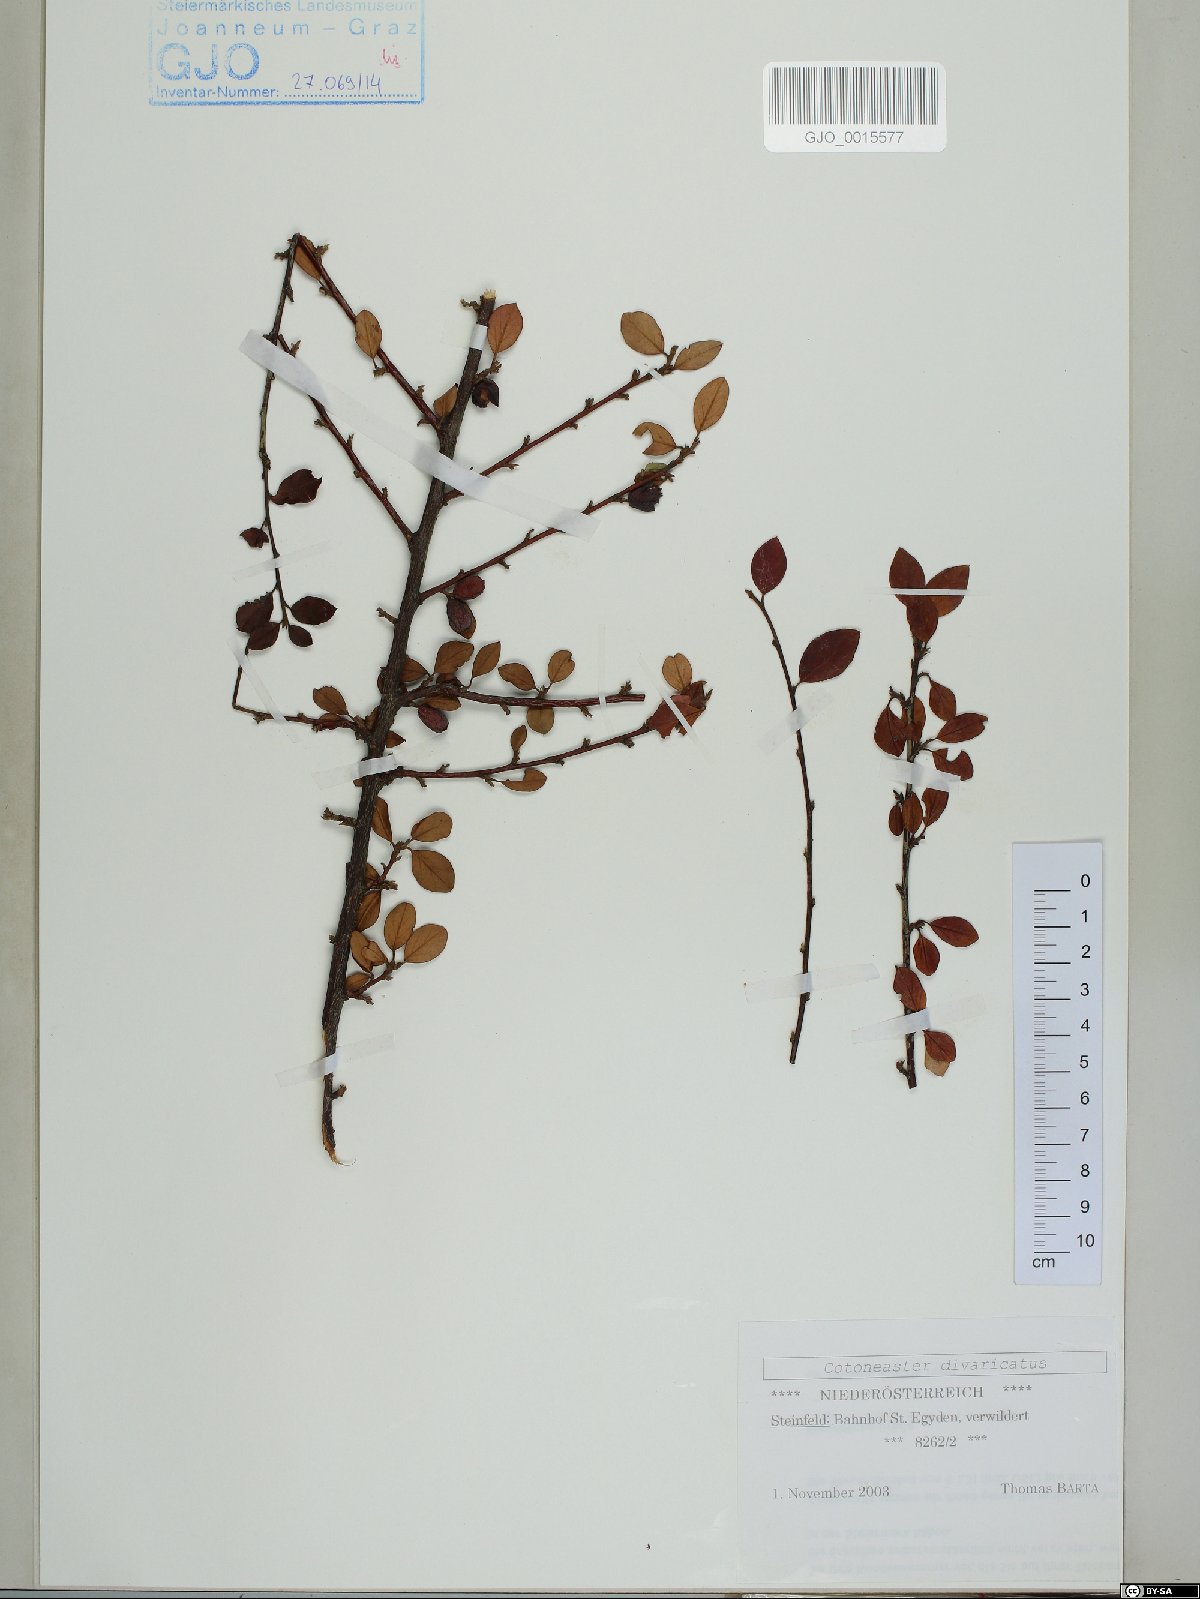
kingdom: Plantae
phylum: Tracheophyta
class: Magnoliopsida
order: Rosales
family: Rosaceae
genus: Cotoneaster
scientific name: Cotoneaster divaricatus
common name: Spreading cotoneaster
